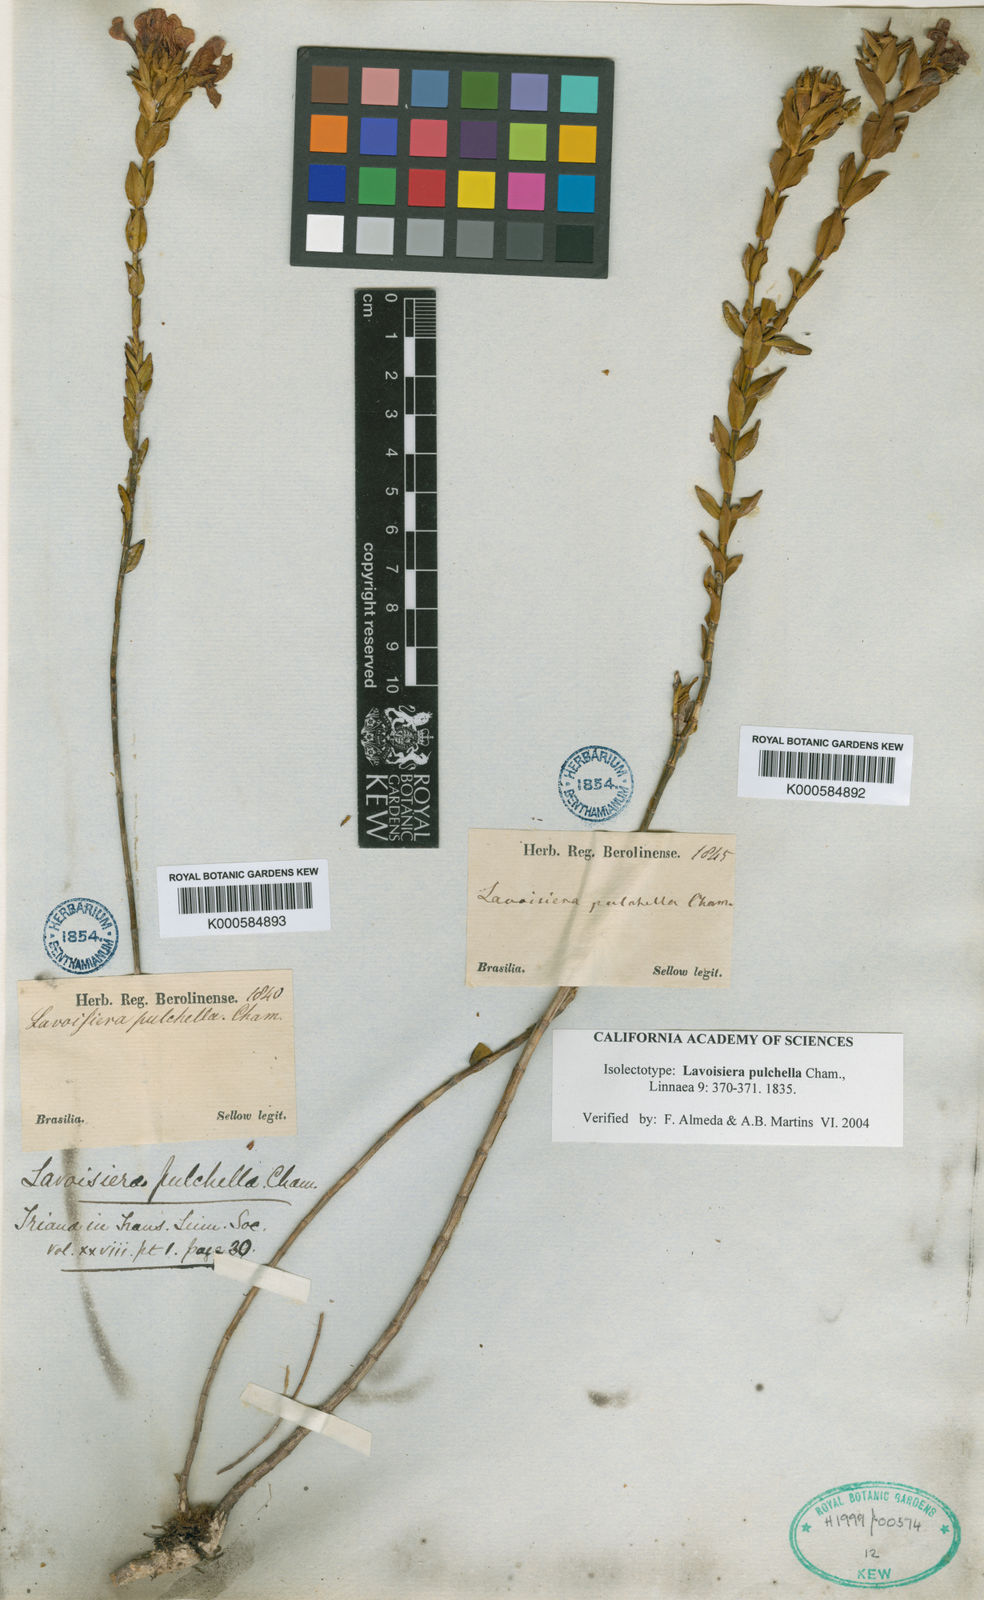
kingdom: Plantae
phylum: Tracheophyta
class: Magnoliopsida
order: Myrtales
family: Melastomataceae
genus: Microlicia
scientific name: Microlicia australis
